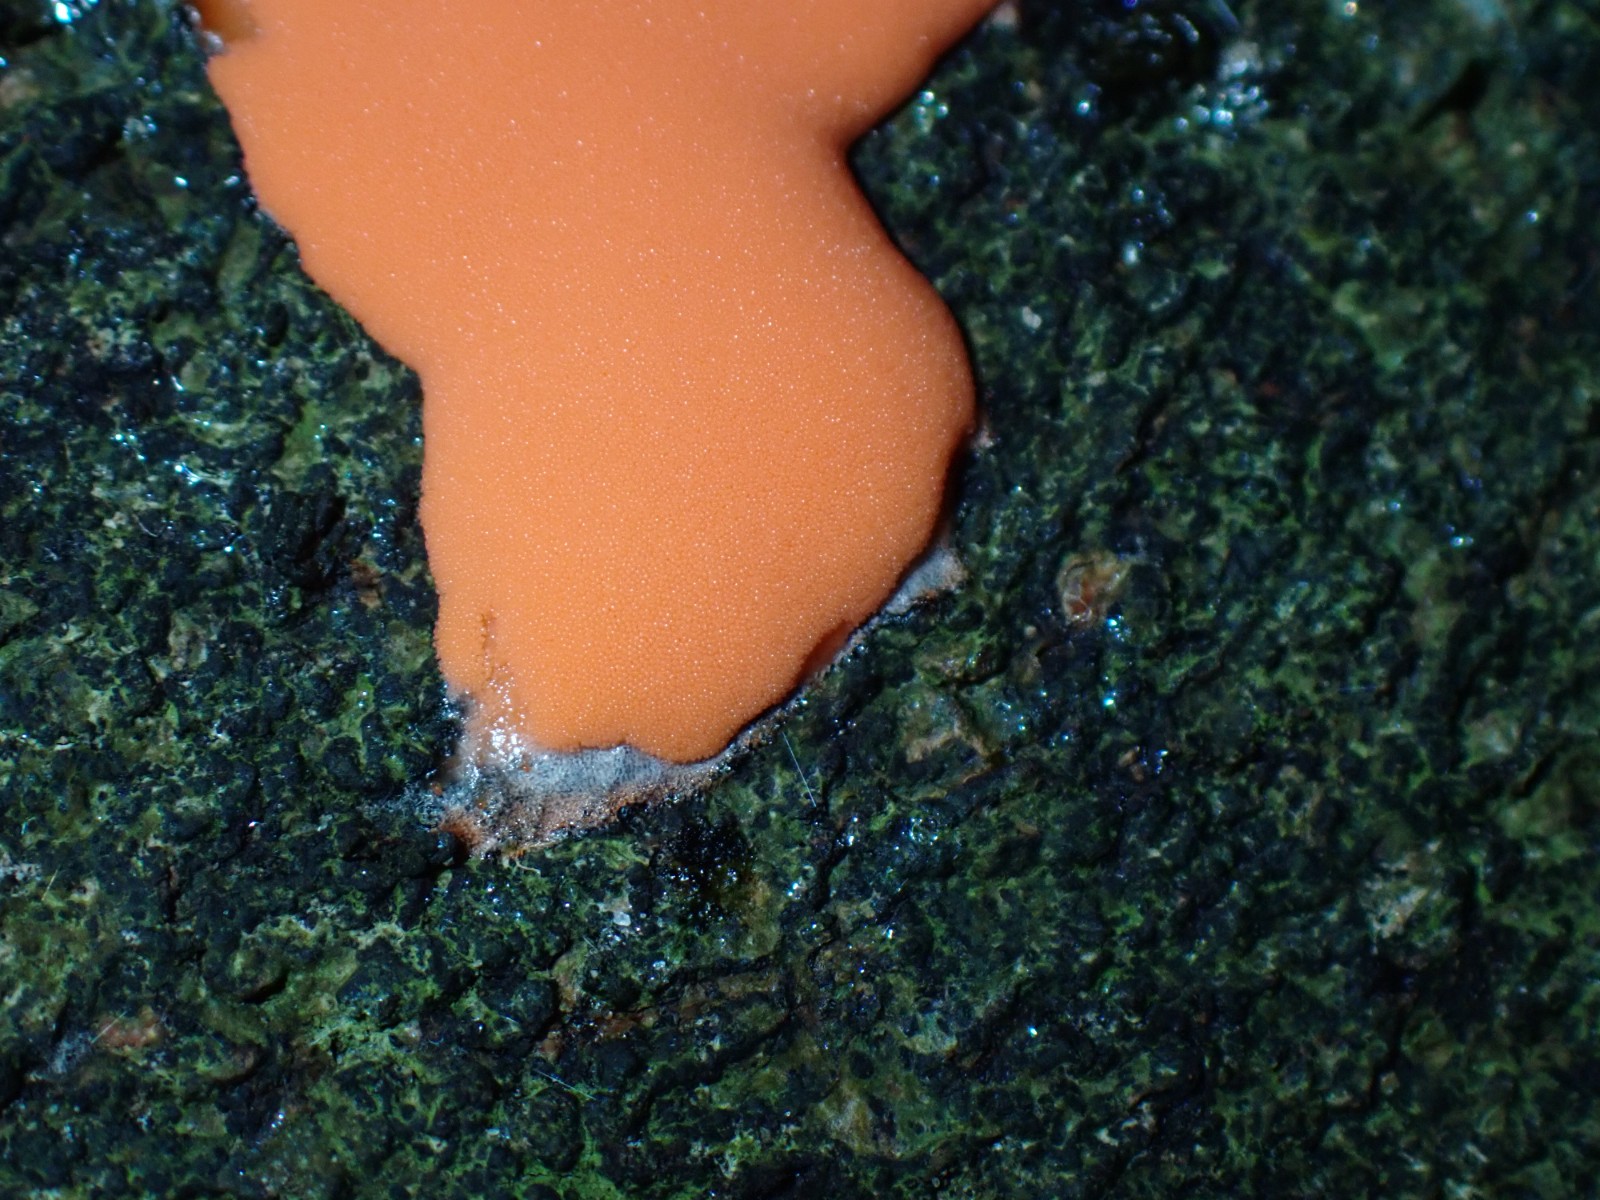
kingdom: Protozoa
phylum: Mycetozoa
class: Myxomycetes
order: Trichiales
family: Dictydiaethaliaceae
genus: Dictydiaethalium
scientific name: Dictydiaethalium plumbeum
